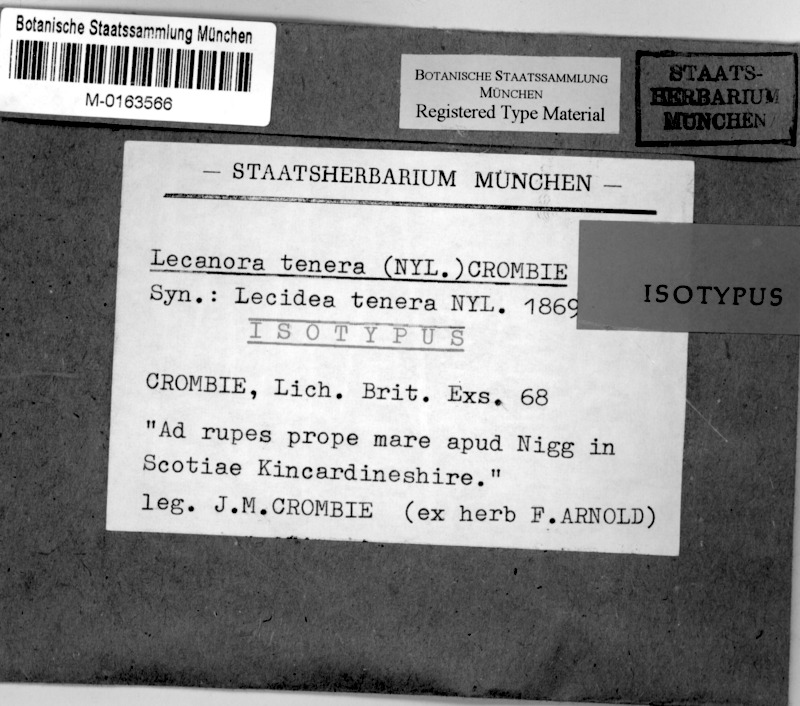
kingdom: Fungi
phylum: Ascomycota
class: Lecanoromycetes
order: Lecanorales
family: Ramalinaceae
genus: Cliostomum
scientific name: Cliostomum tenerum
